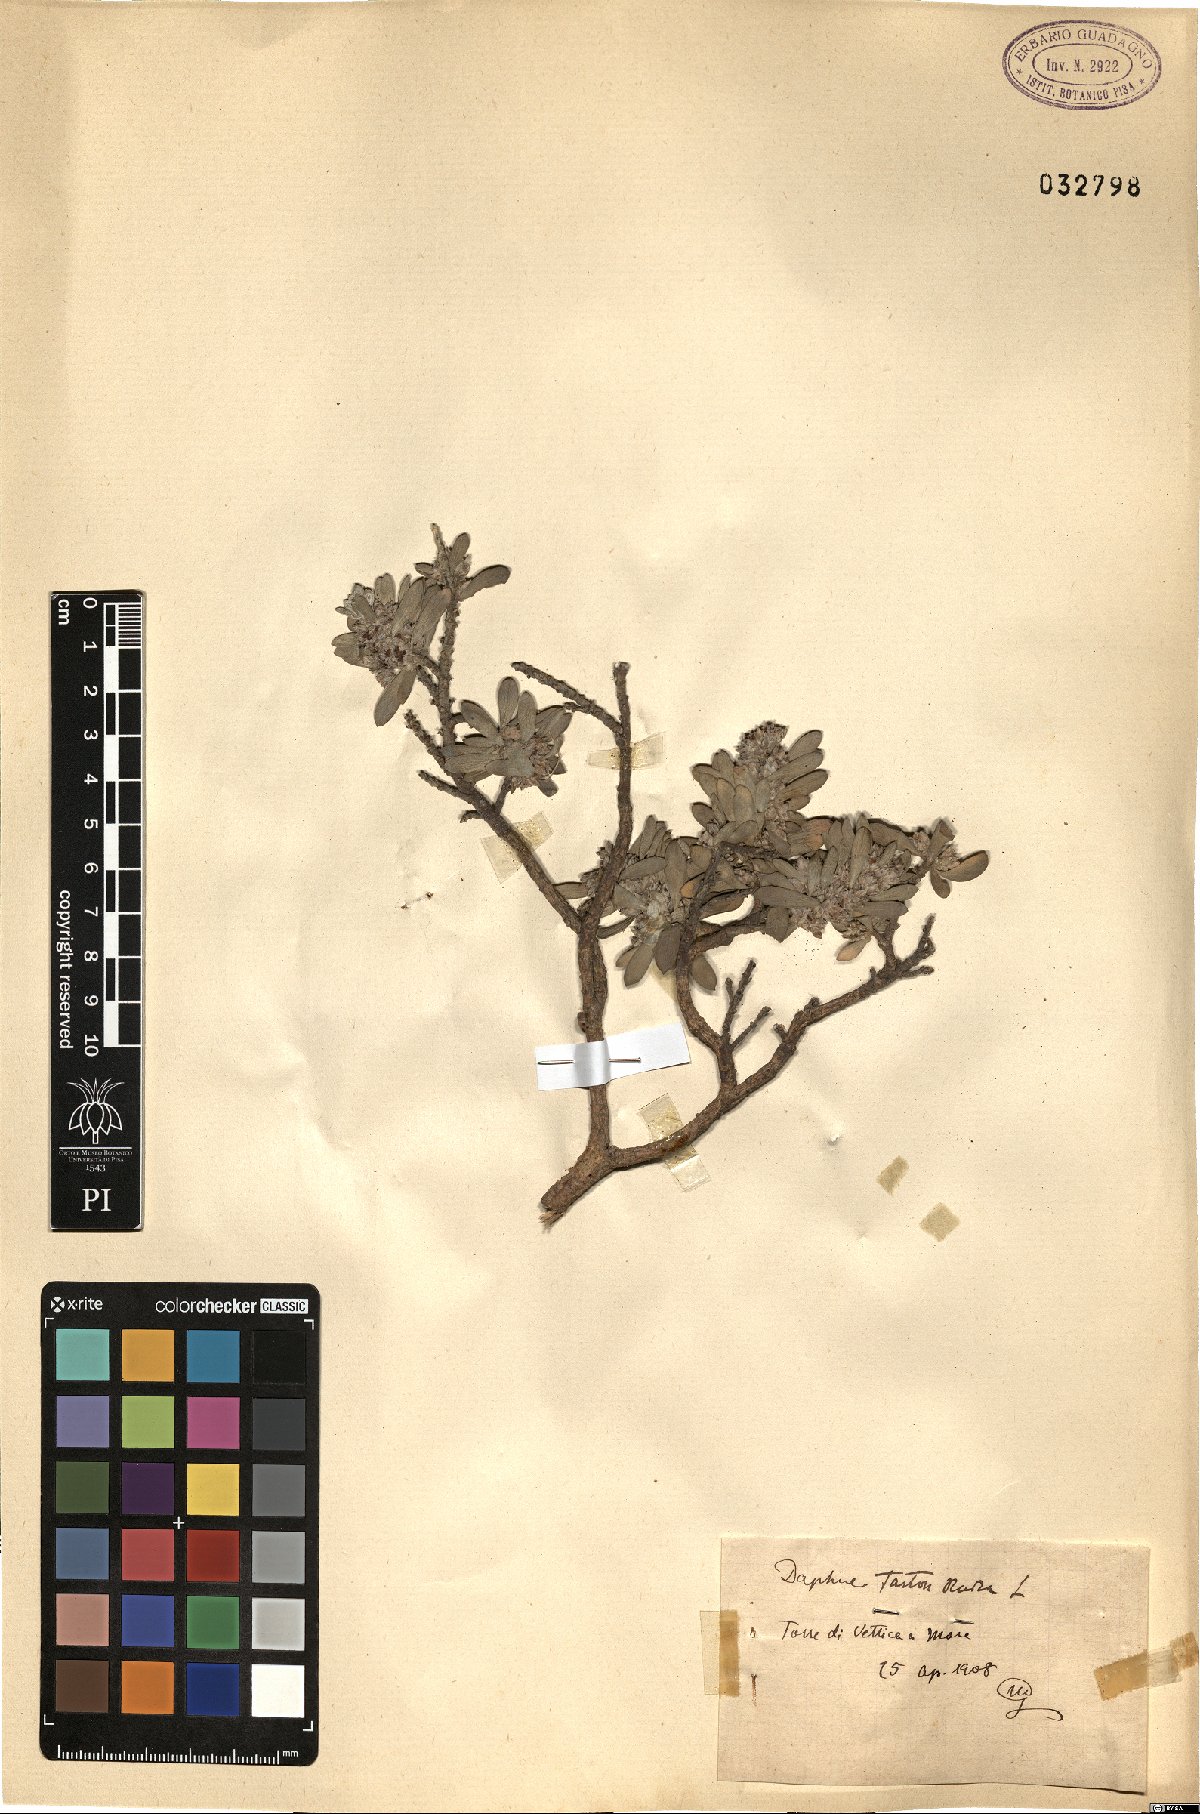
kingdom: Plantae
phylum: Tracheophyta
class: Magnoliopsida
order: Malvales
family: Thymelaeaceae
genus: Thymelaea
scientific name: Thymelaea tartonraira
